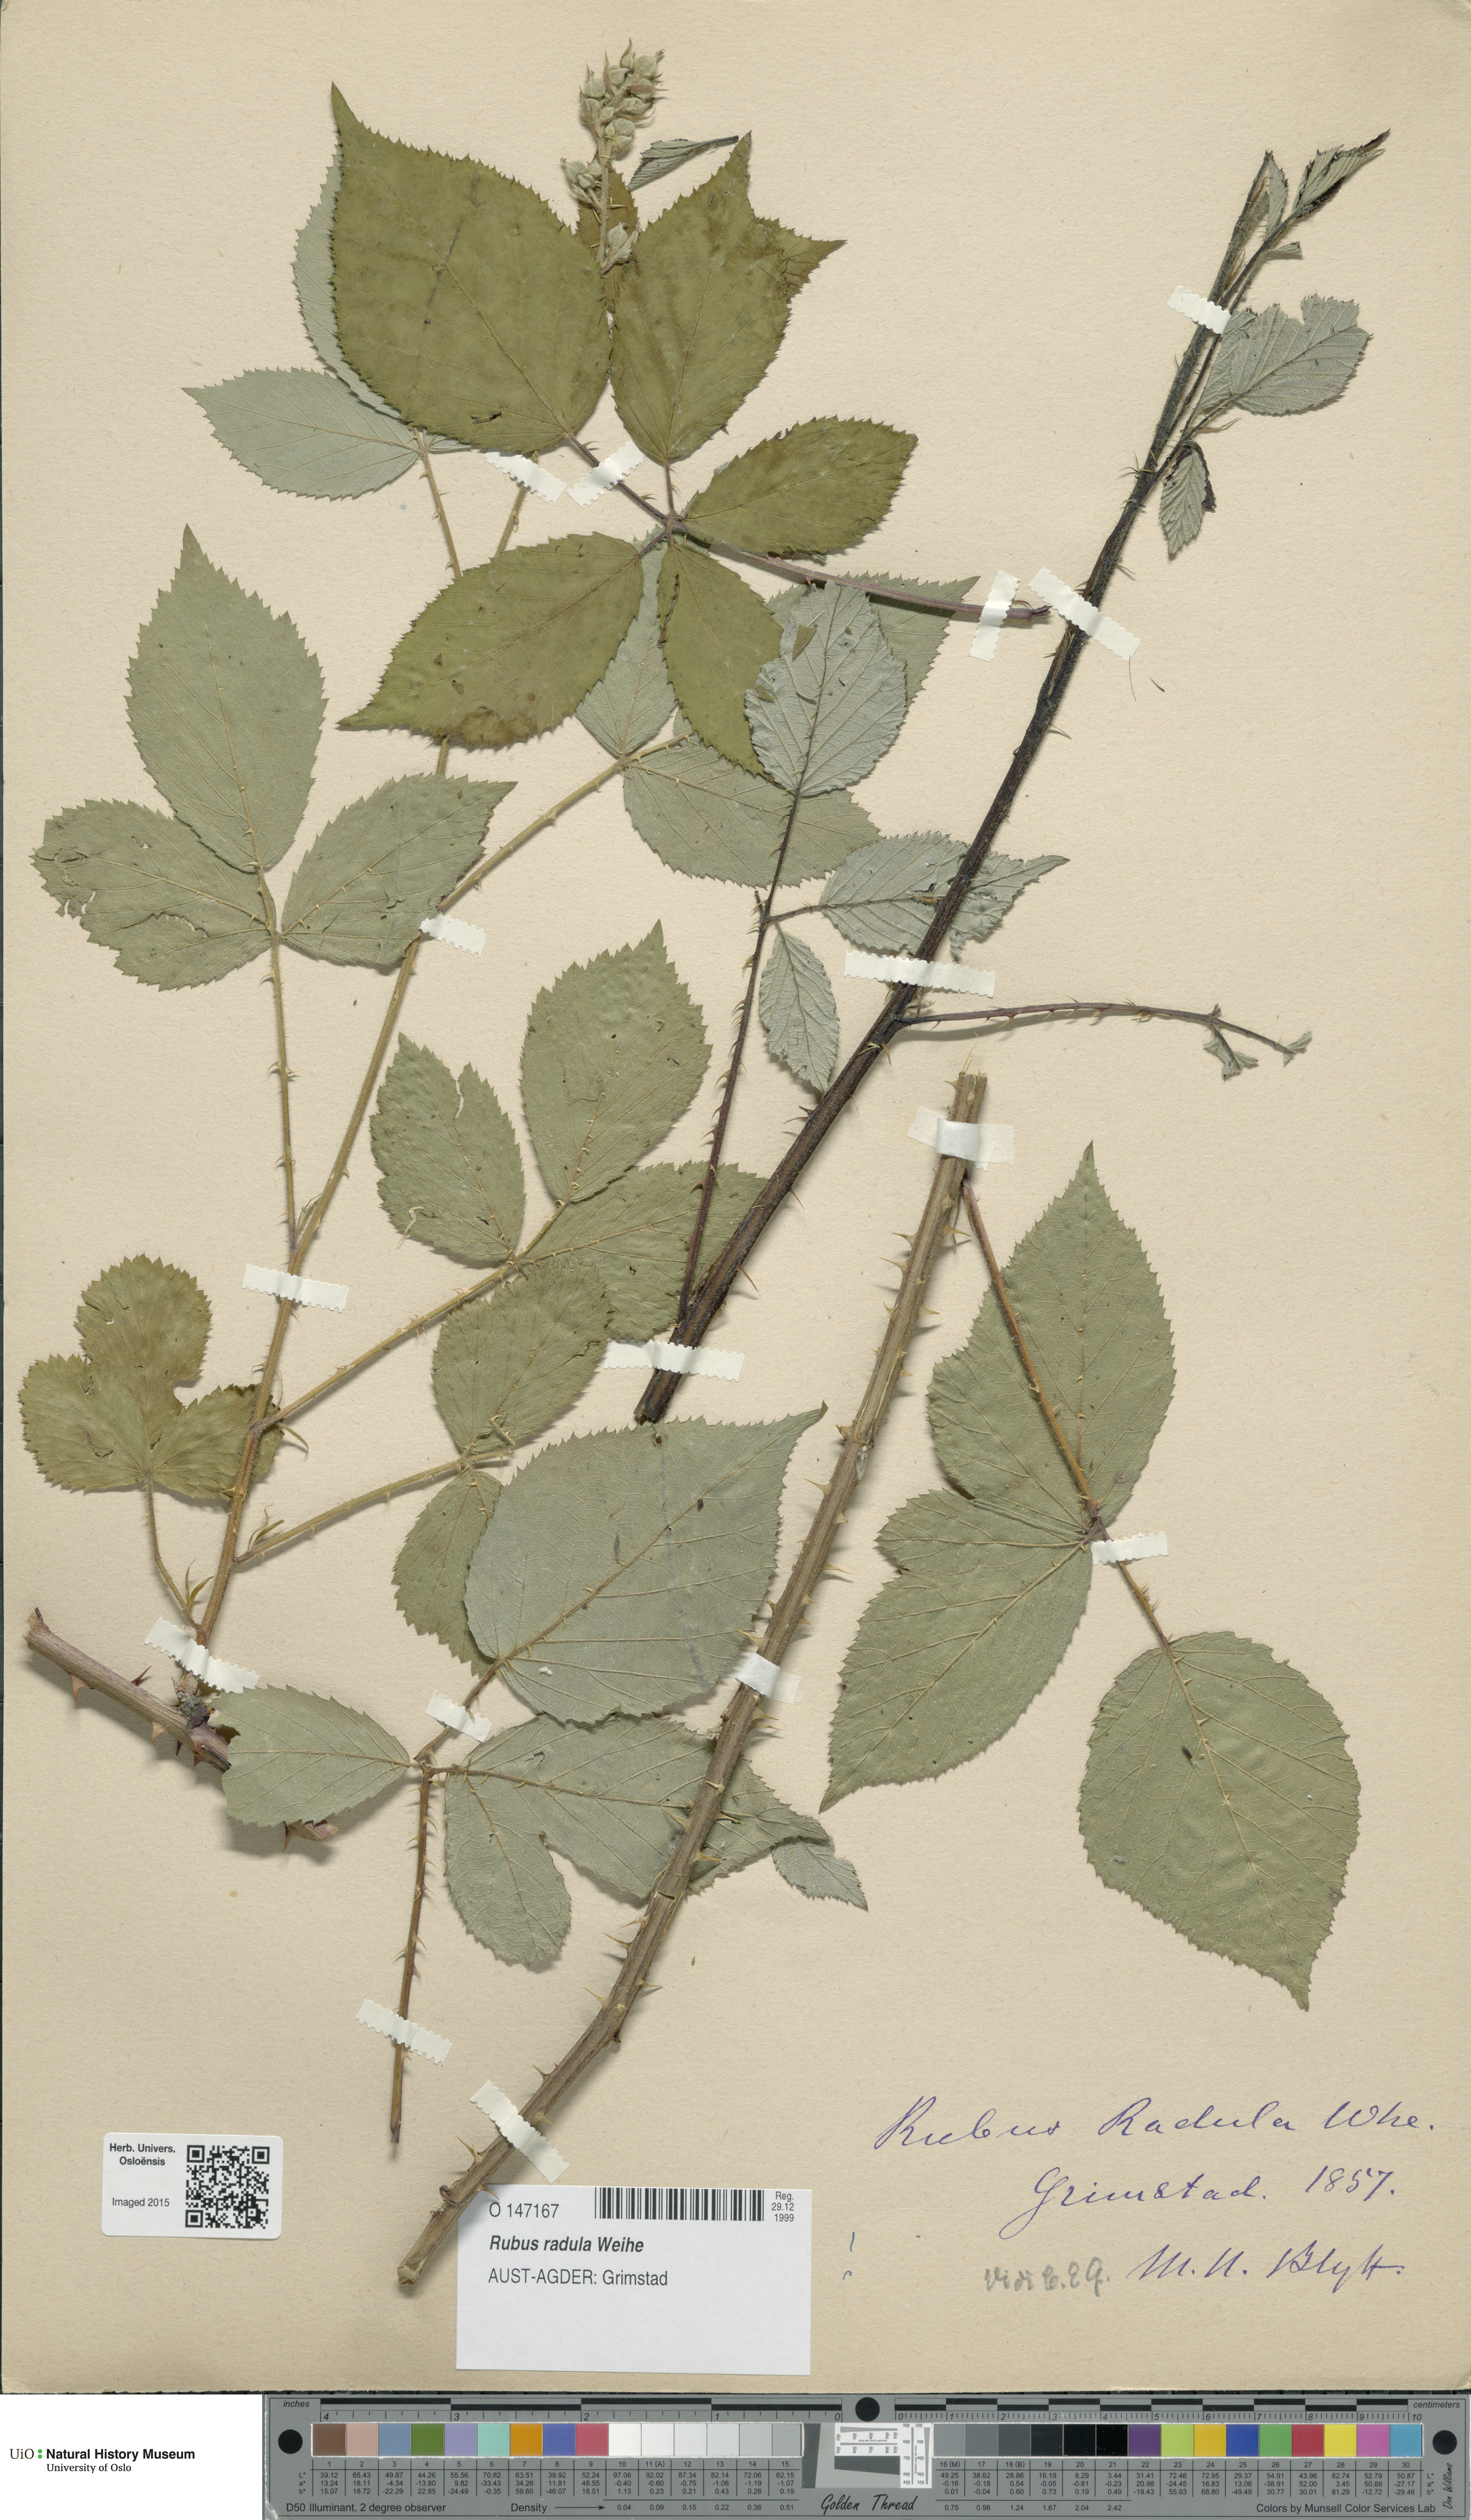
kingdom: Plantae
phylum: Tracheophyta
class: Magnoliopsida
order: Rosales
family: Rosaceae
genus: Rubus
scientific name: Rubus radula
